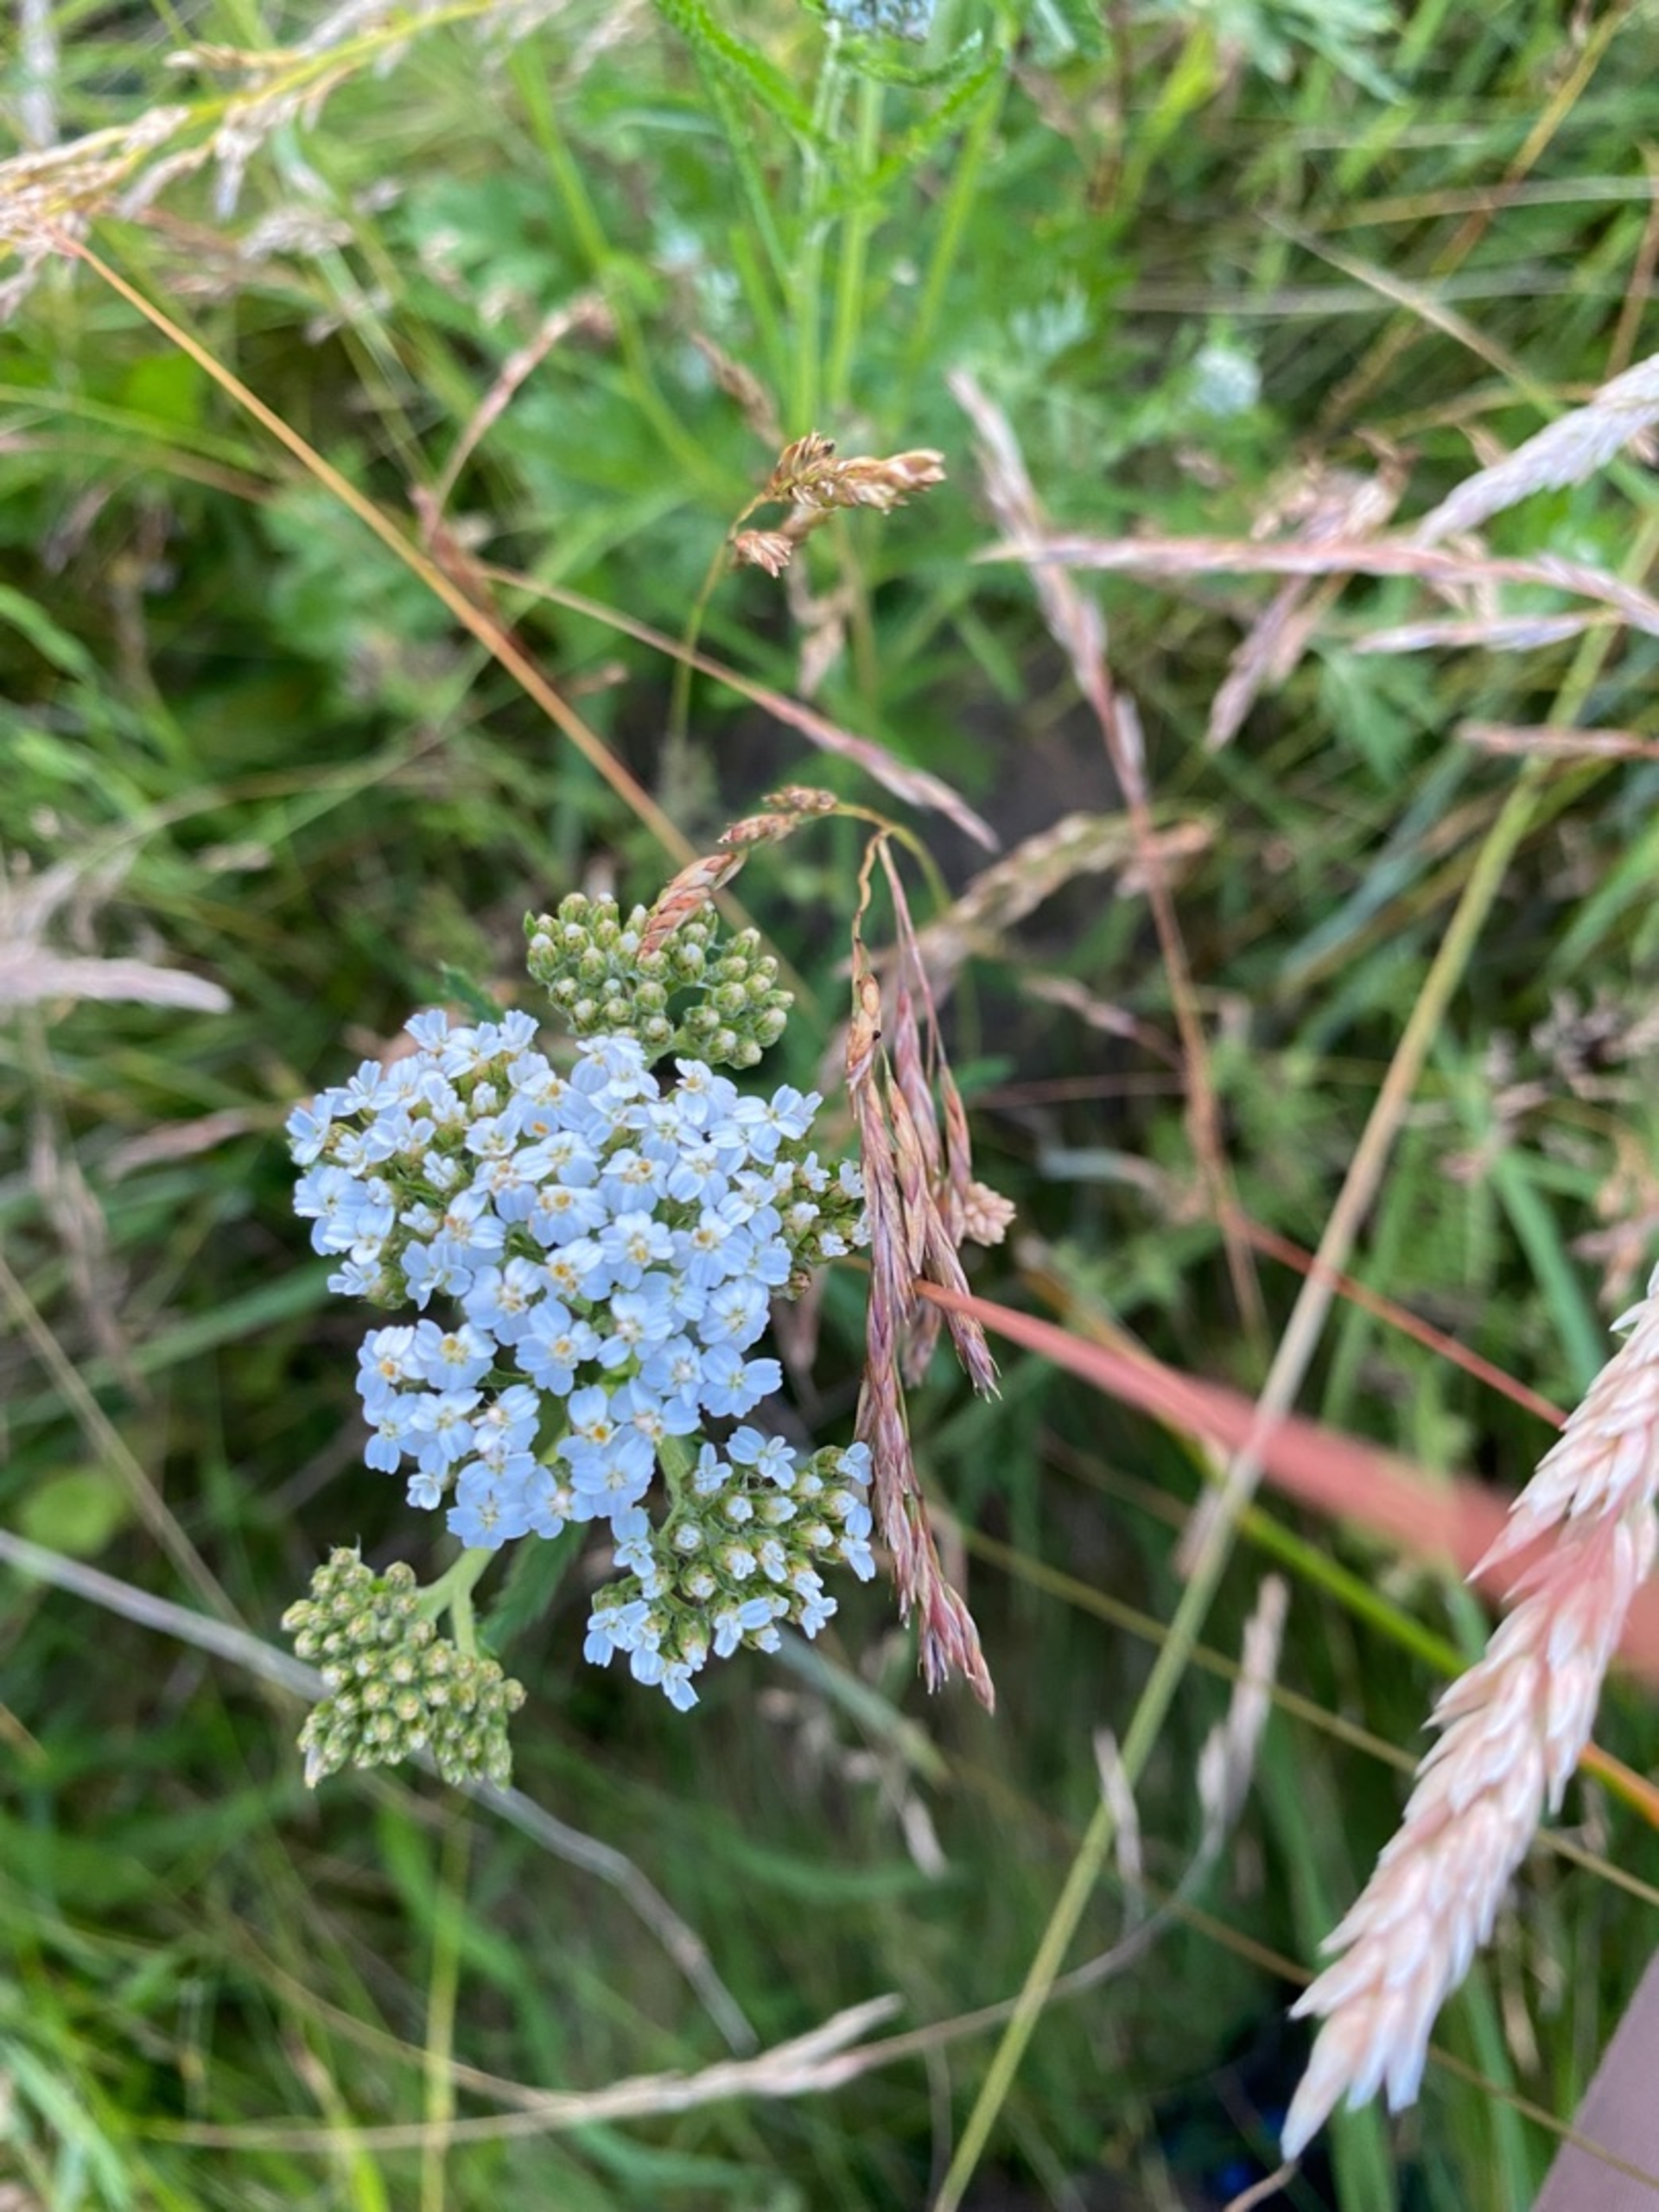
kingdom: Plantae
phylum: Tracheophyta
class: Magnoliopsida
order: Asterales
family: Asteraceae
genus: Achillea
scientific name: Achillea millefolium
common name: Almindelig røllike
